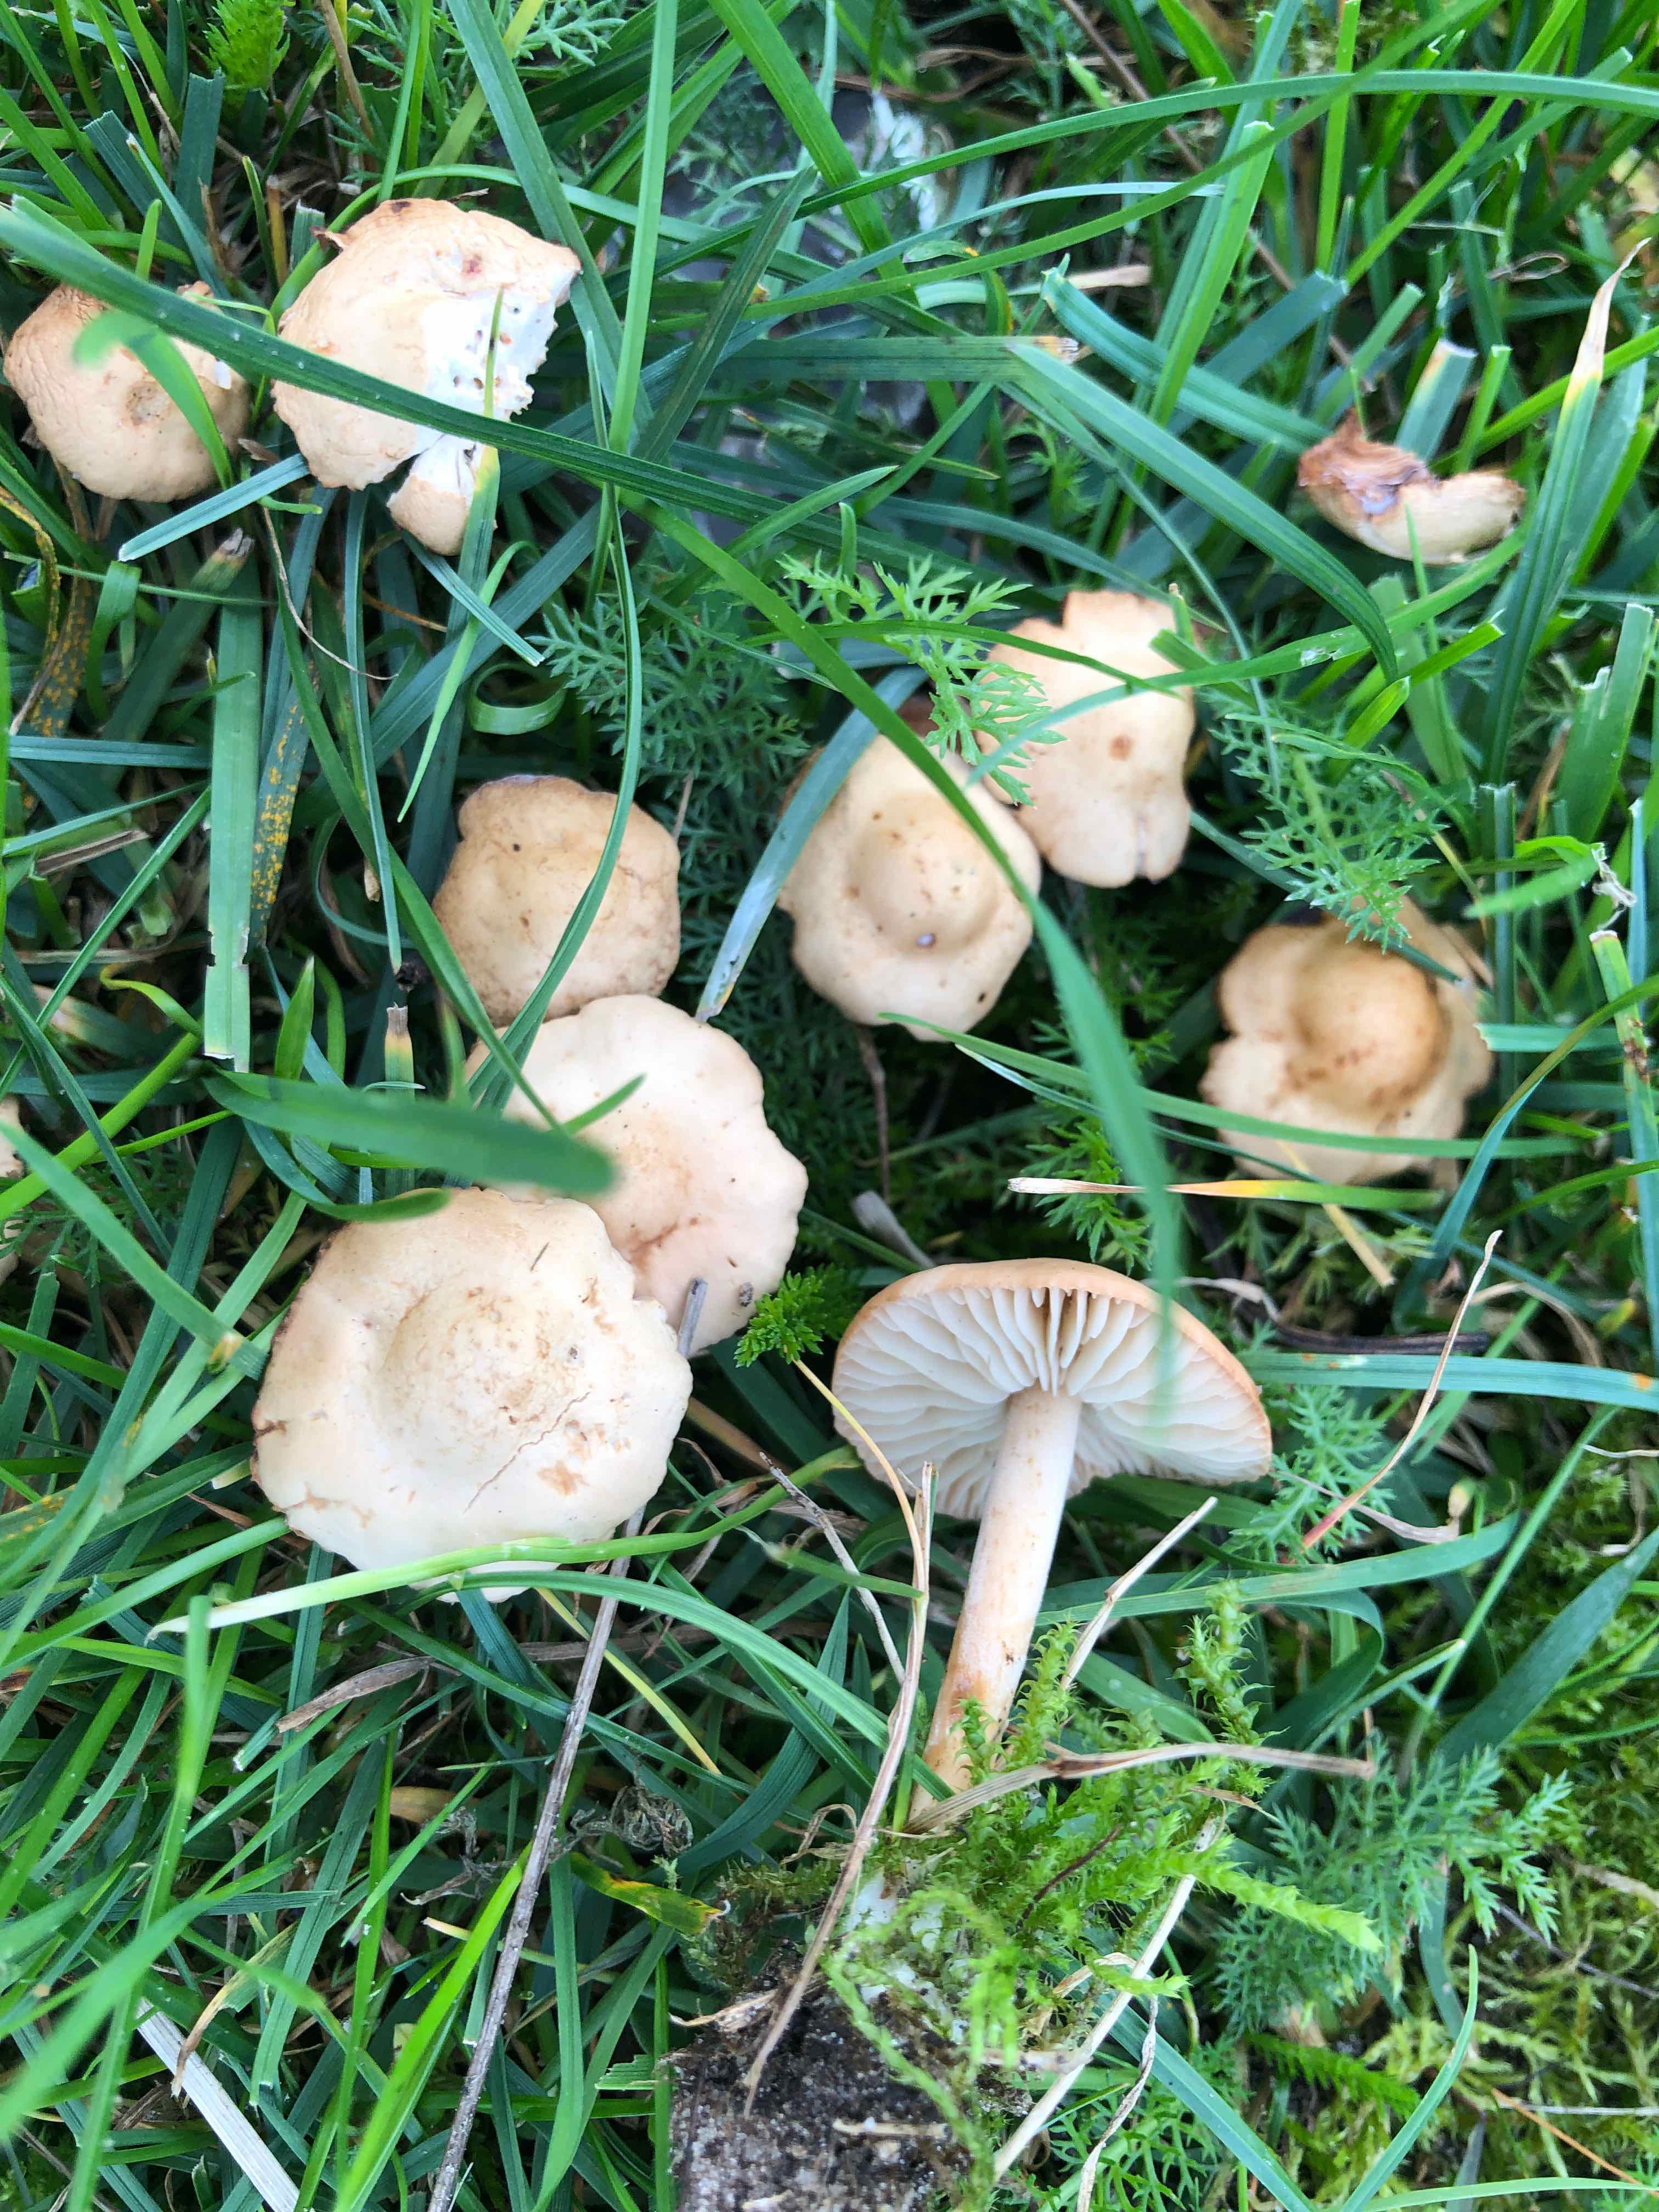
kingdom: Fungi
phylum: Basidiomycota
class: Agaricomycetes
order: Agaricales
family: Marasmiaceae
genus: Marasmius
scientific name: Marasmius oreades
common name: elledans-bruskhat
